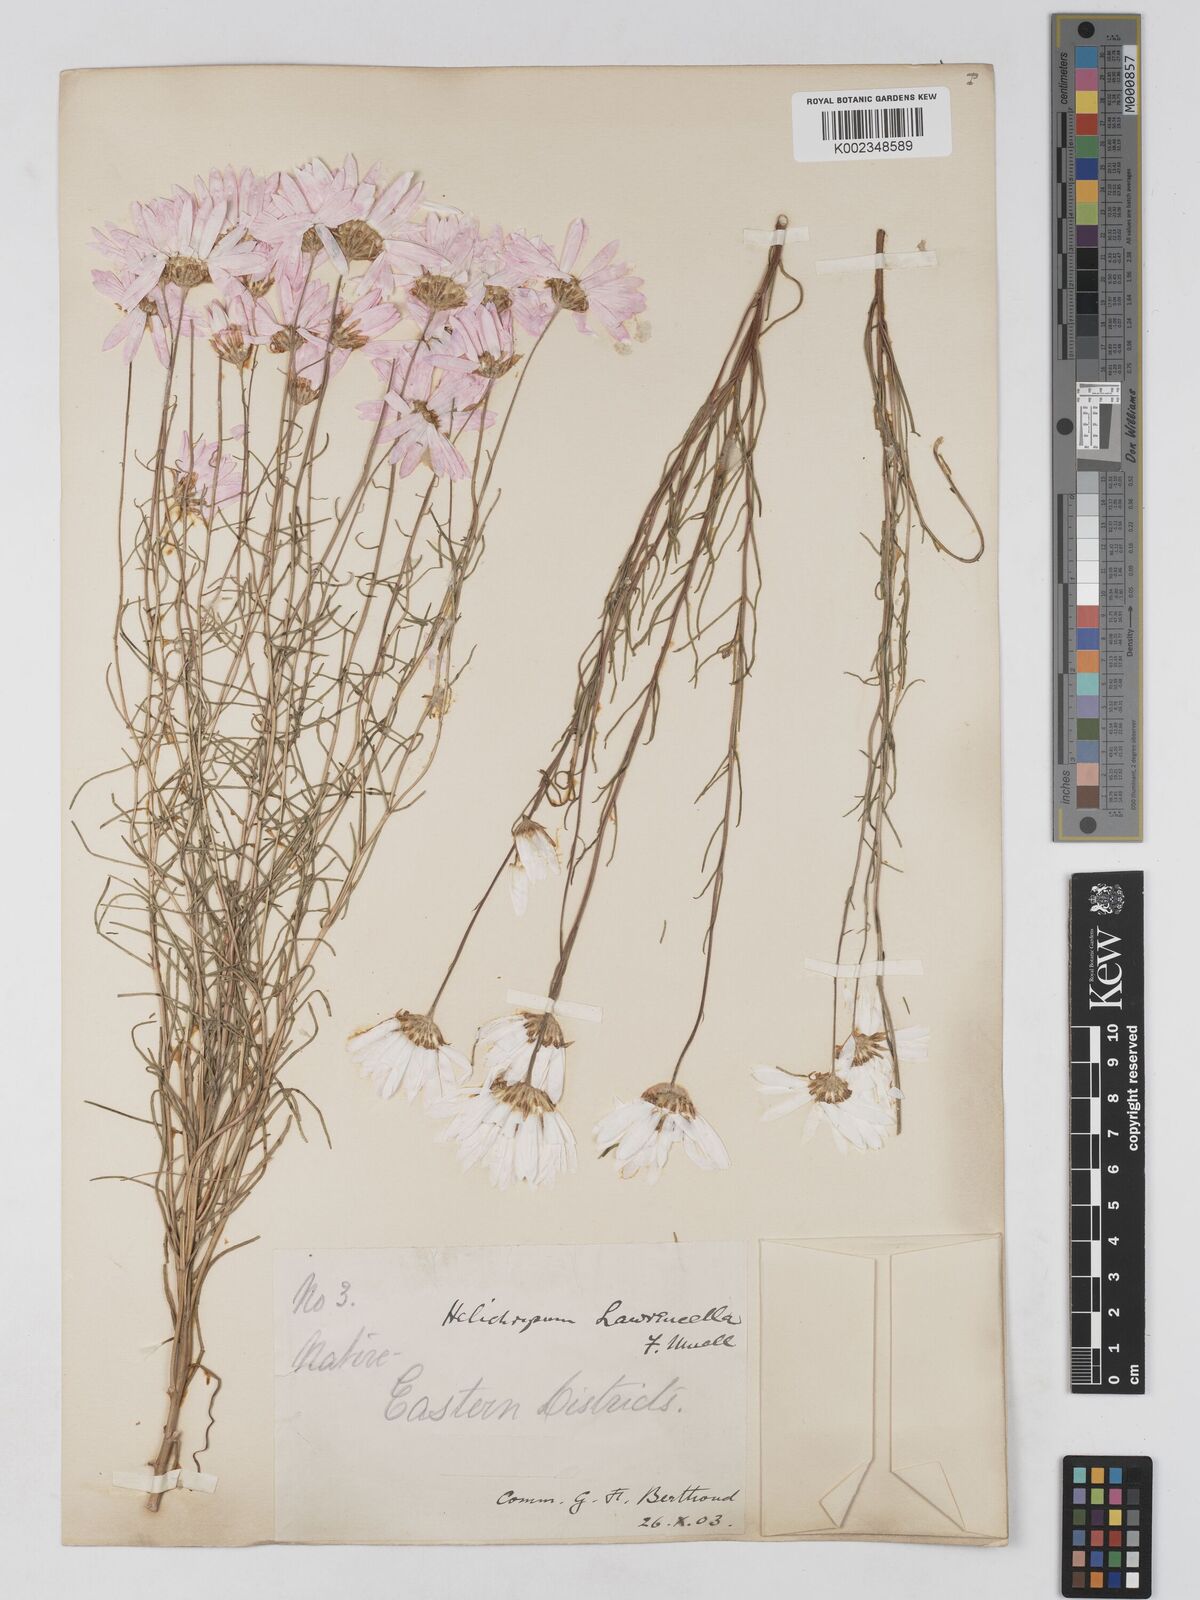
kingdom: Plantae
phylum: Tracheophyta
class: Magnoliopsida
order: Asterales
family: Asteraceae
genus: Lawrencella
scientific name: Lawrencella rosea
